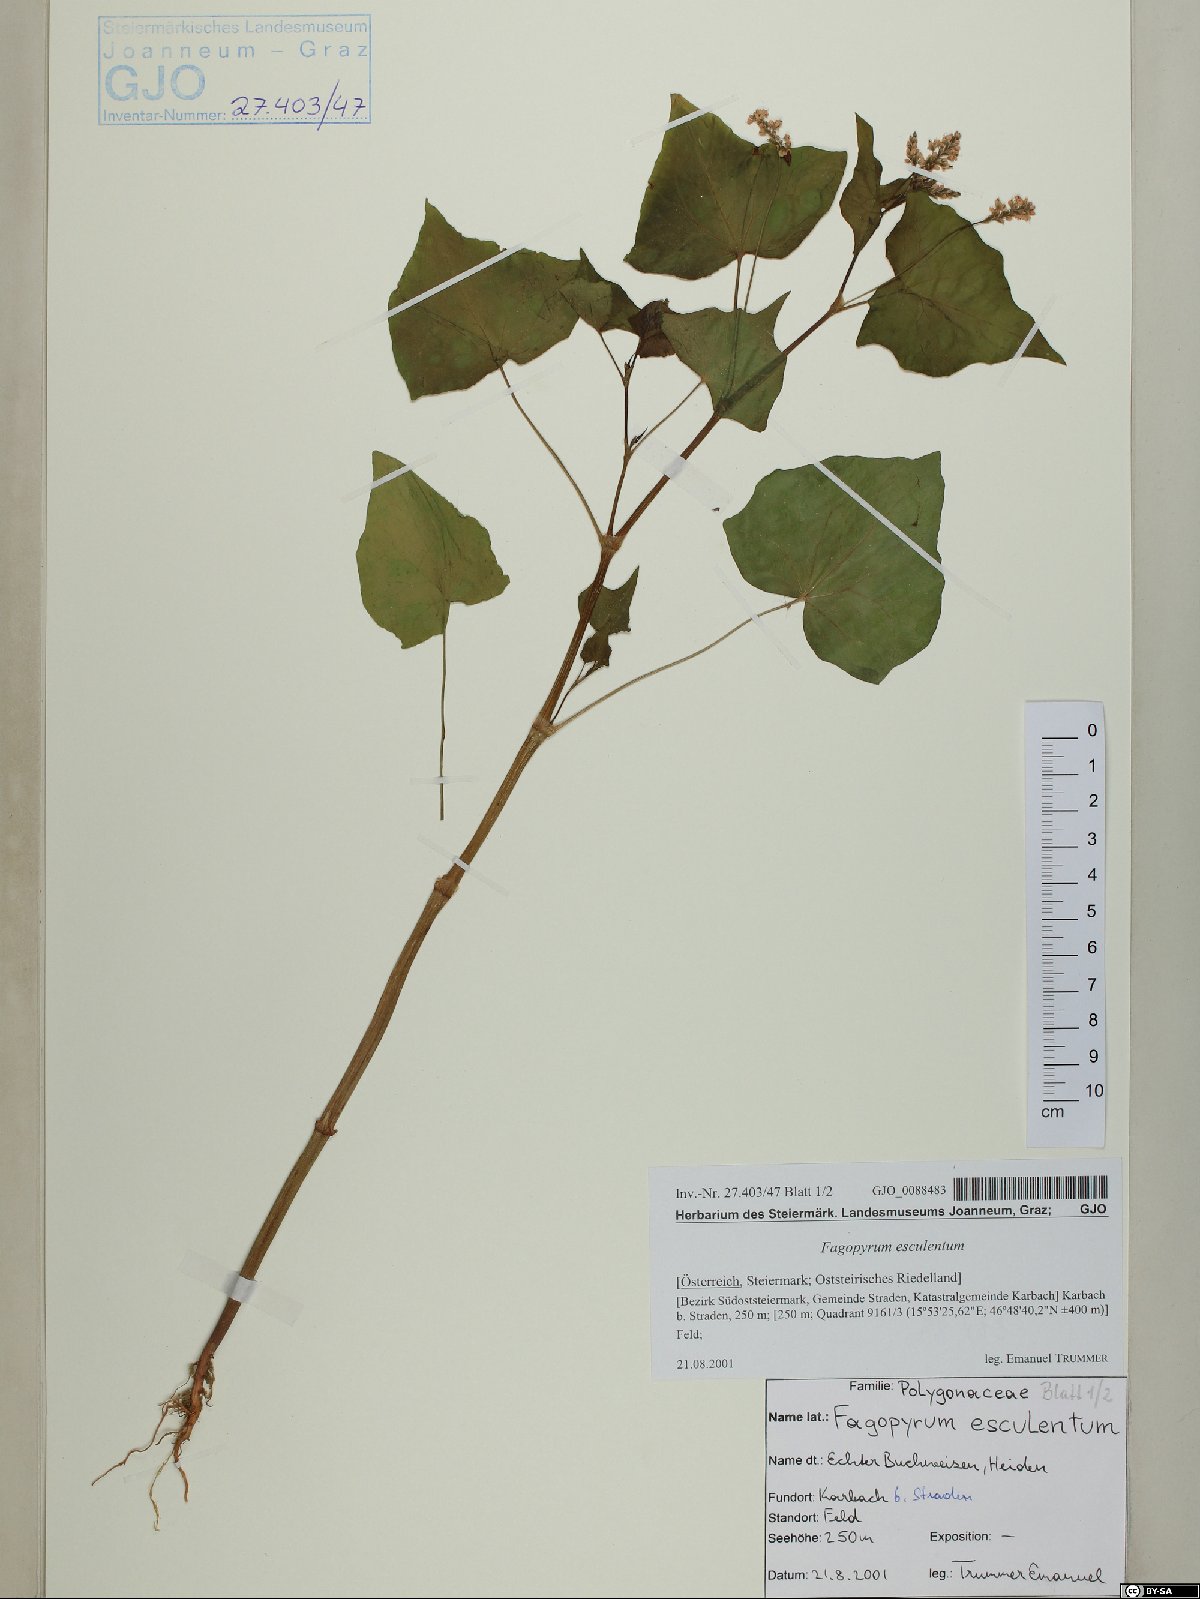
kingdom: Plantae
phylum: Tracheophyta
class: Magnoliopsida
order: Caryophyllales
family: Polygonaceae
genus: Fagopyrum
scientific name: Fagopyrum esculentum
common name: Buckwheat
